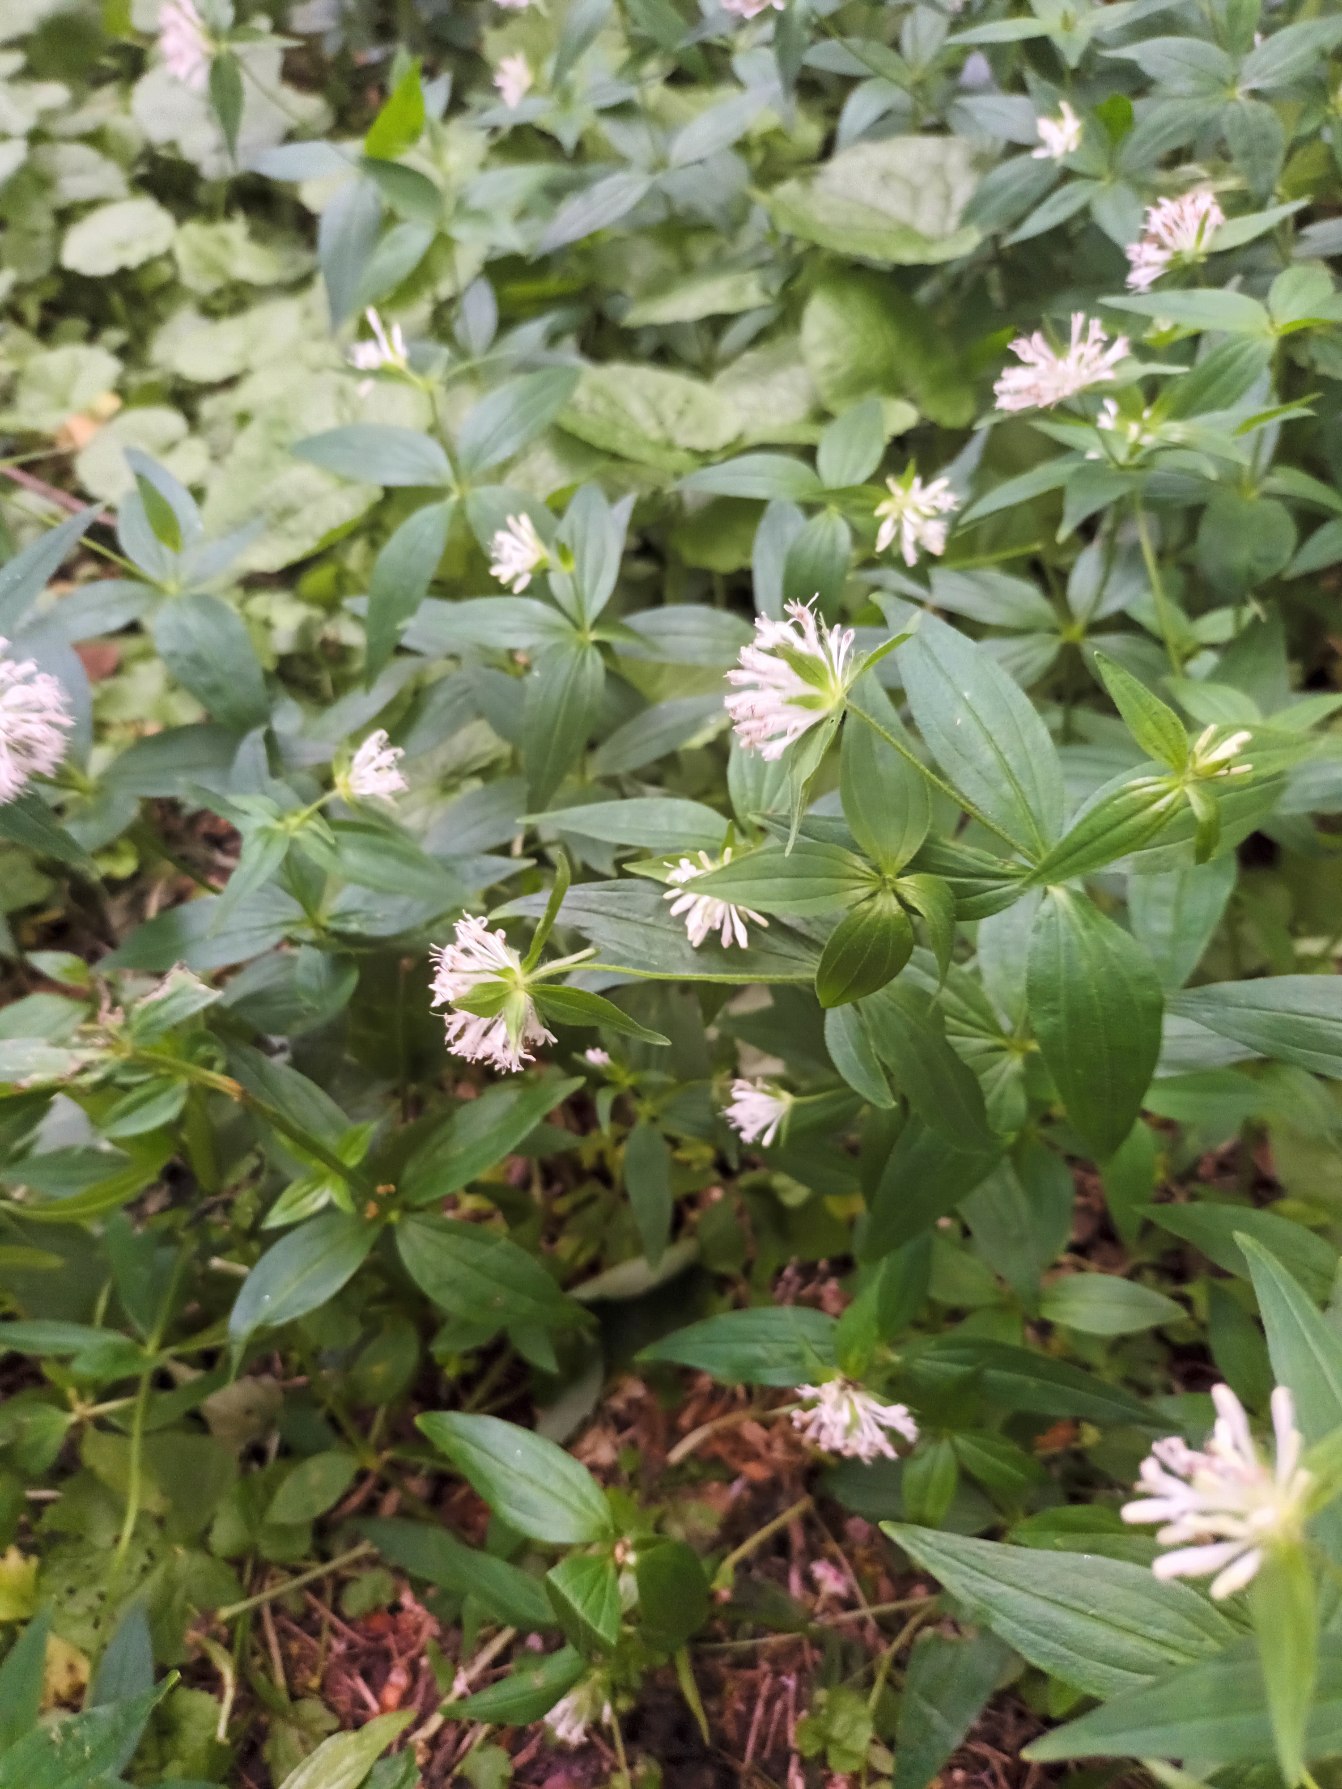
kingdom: Plantae
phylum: Tracheophyta
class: Magnoliopsida
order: Gentianales
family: Rubiaceae
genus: Asperula
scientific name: Asperula taurina
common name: Kaukasisk mysike
